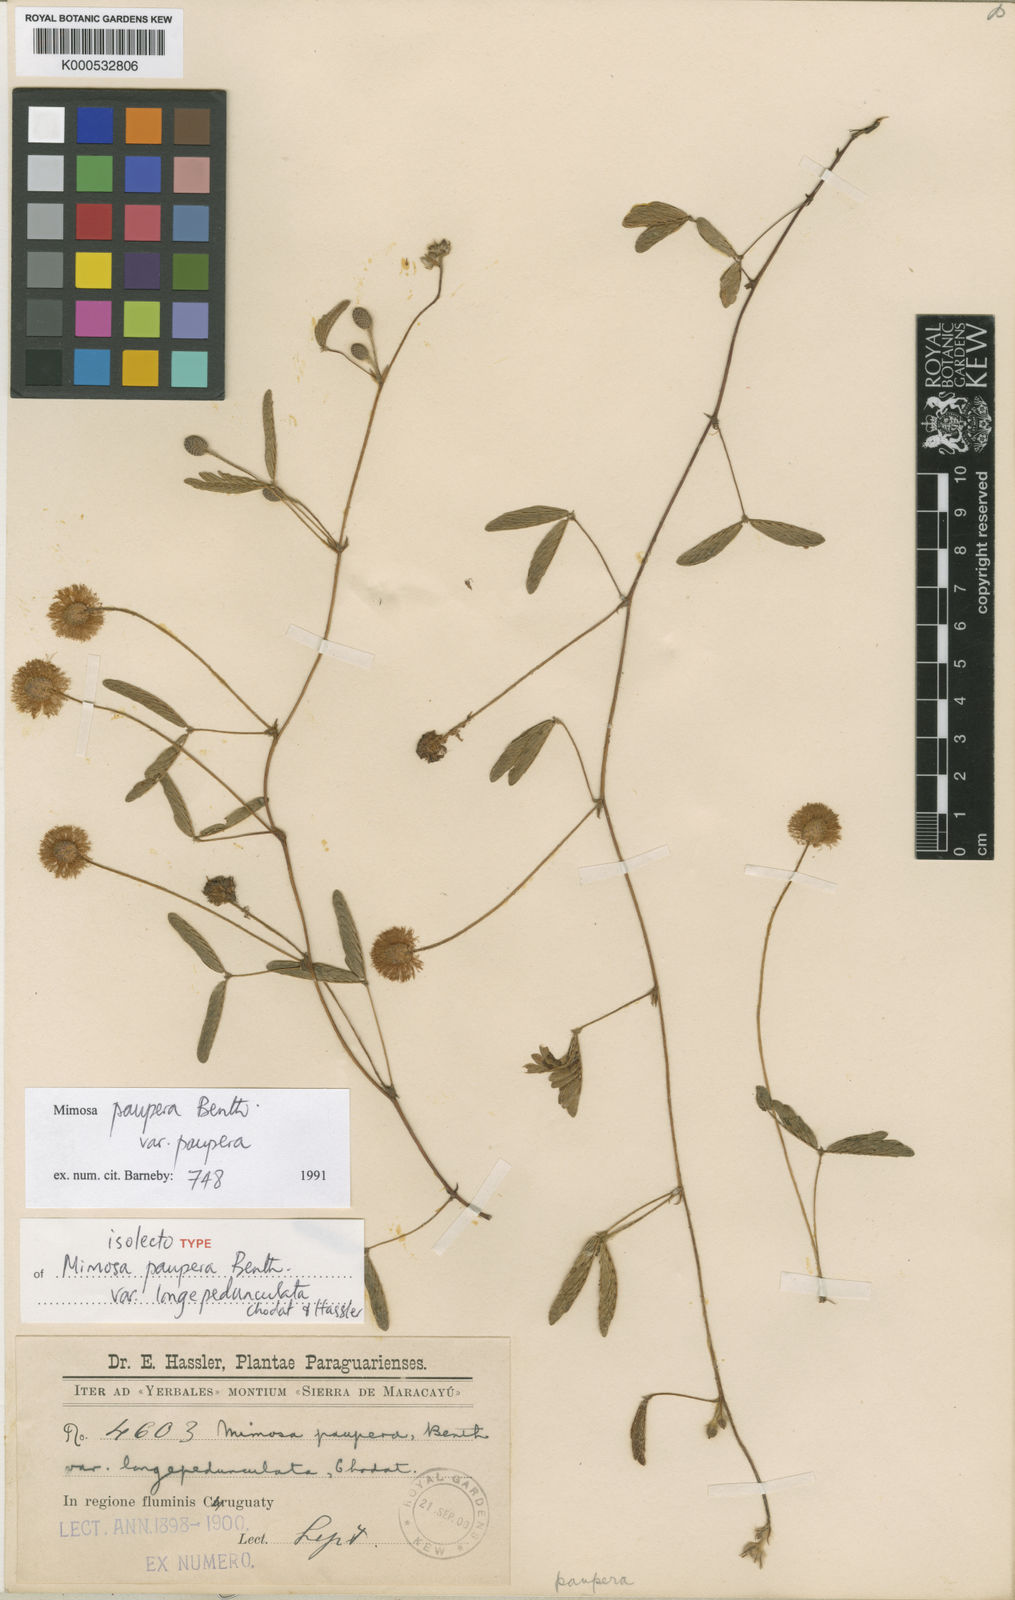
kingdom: Plantae
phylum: Tracheophyta
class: Magnoliopsida
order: Fabales
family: Fabaceae
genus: Mimosa
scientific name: Mimosa paupera
